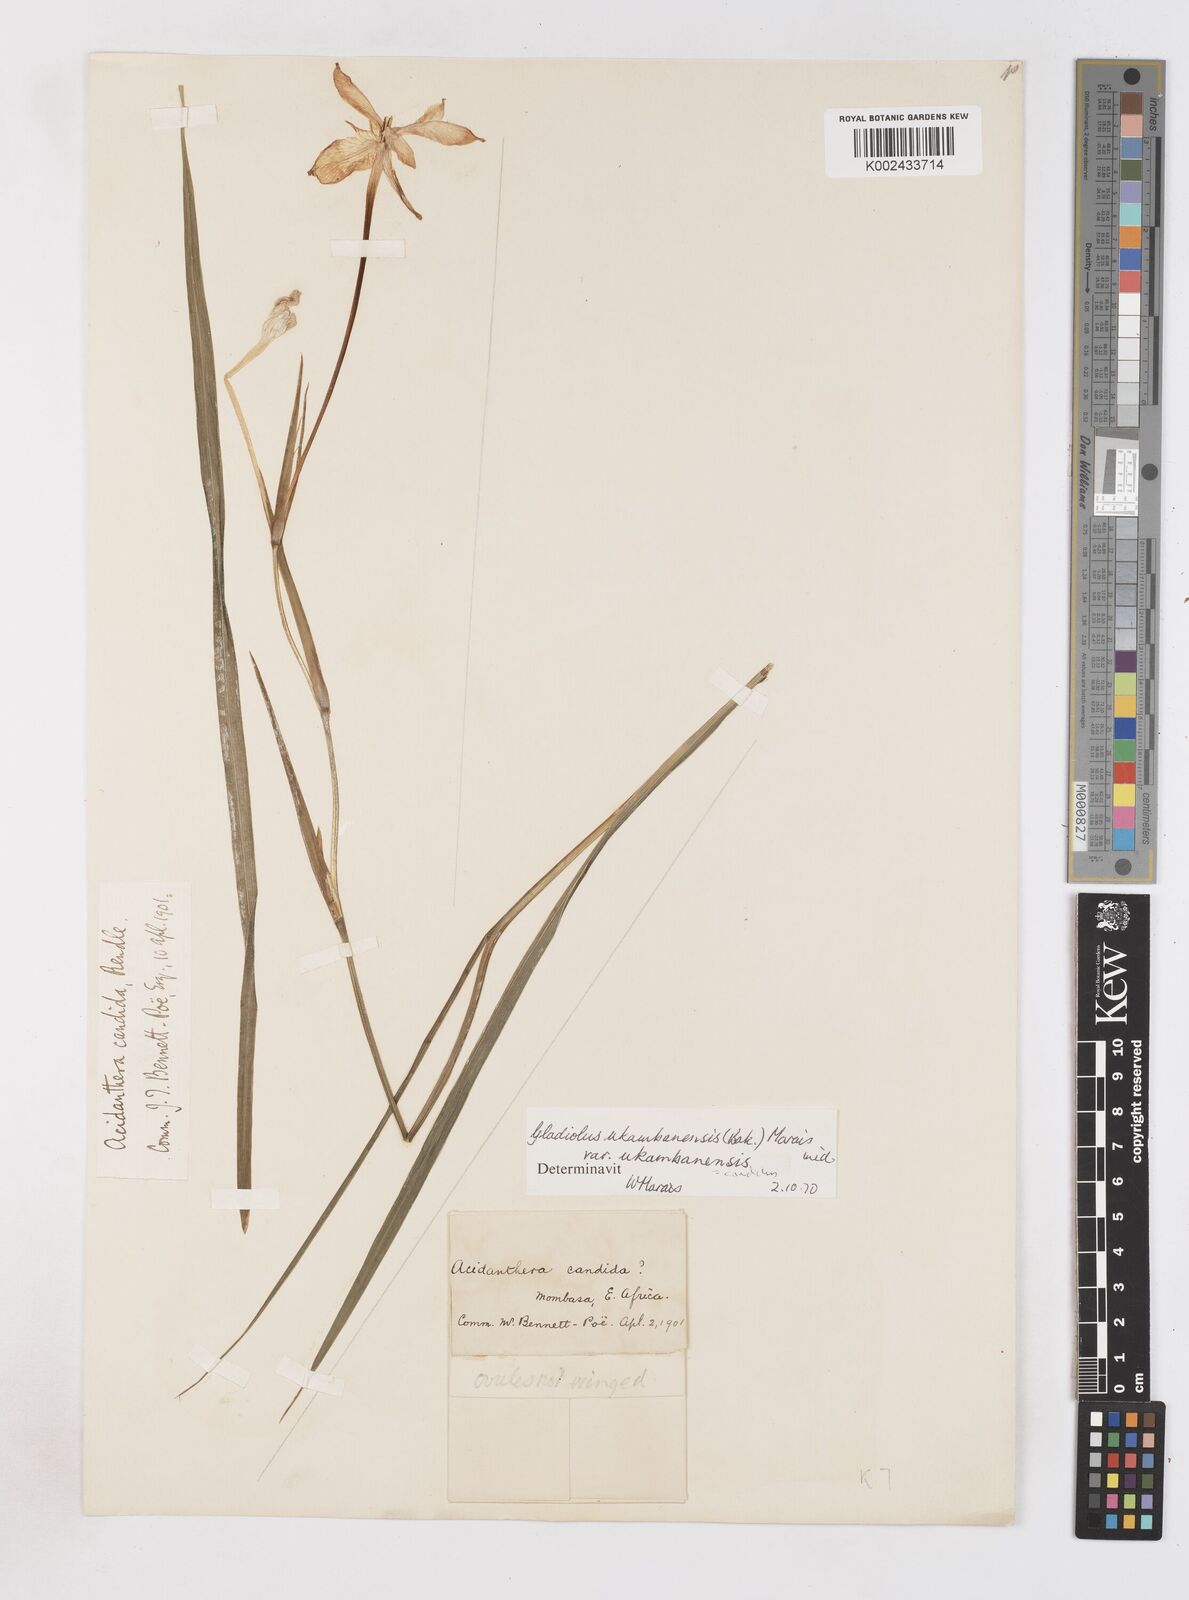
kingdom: Plantae
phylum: Tracheophyta
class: Liliopsida
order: Asparagales
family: Iridaceae
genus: Gladiolus
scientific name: Gladiolus candidus
